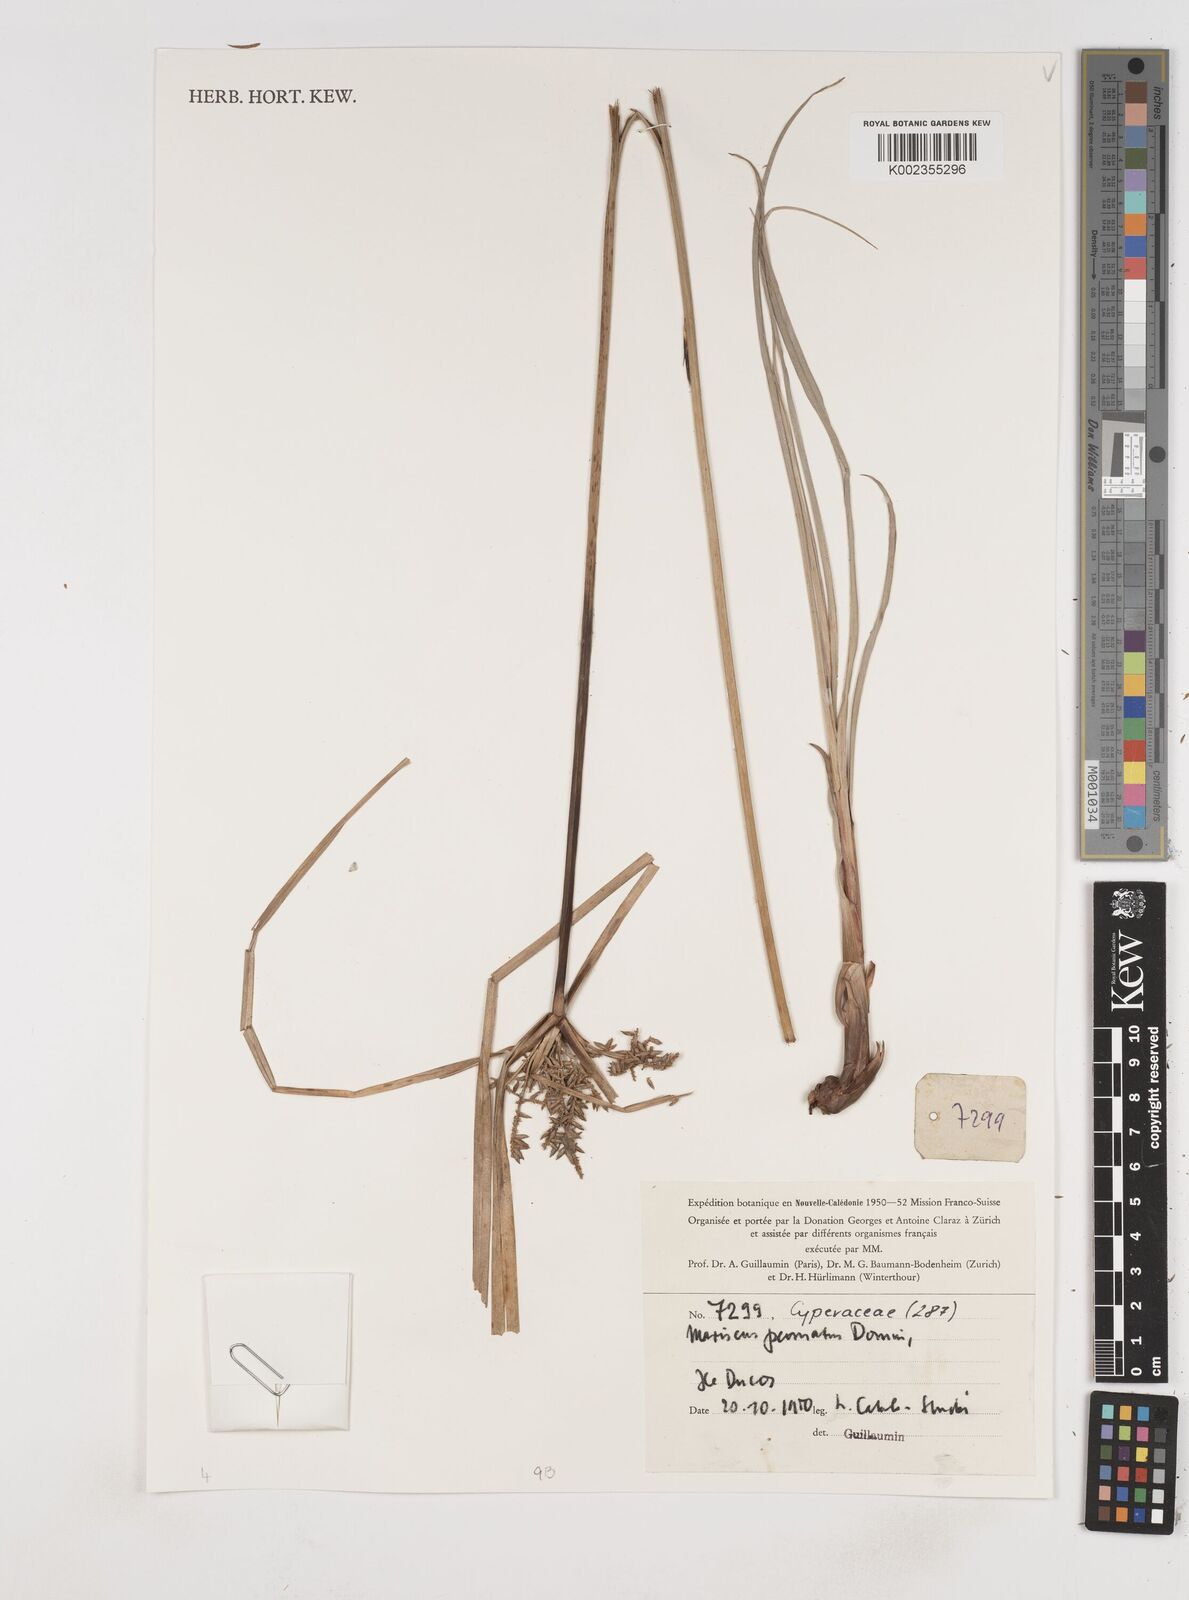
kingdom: Plantae
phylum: Tracheophyta
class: Liliopsida
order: Poales
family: Cyperaceae
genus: Cyperus
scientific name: Cyperus feani
